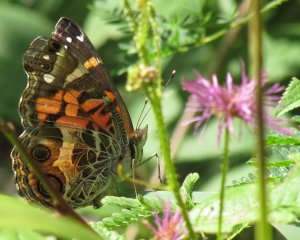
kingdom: Animalia
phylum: Arthropoda
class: Insecta
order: Lepidoptera
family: Nymphalidae
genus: Vanessa
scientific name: Vanessa virginiensis
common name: American Lady
